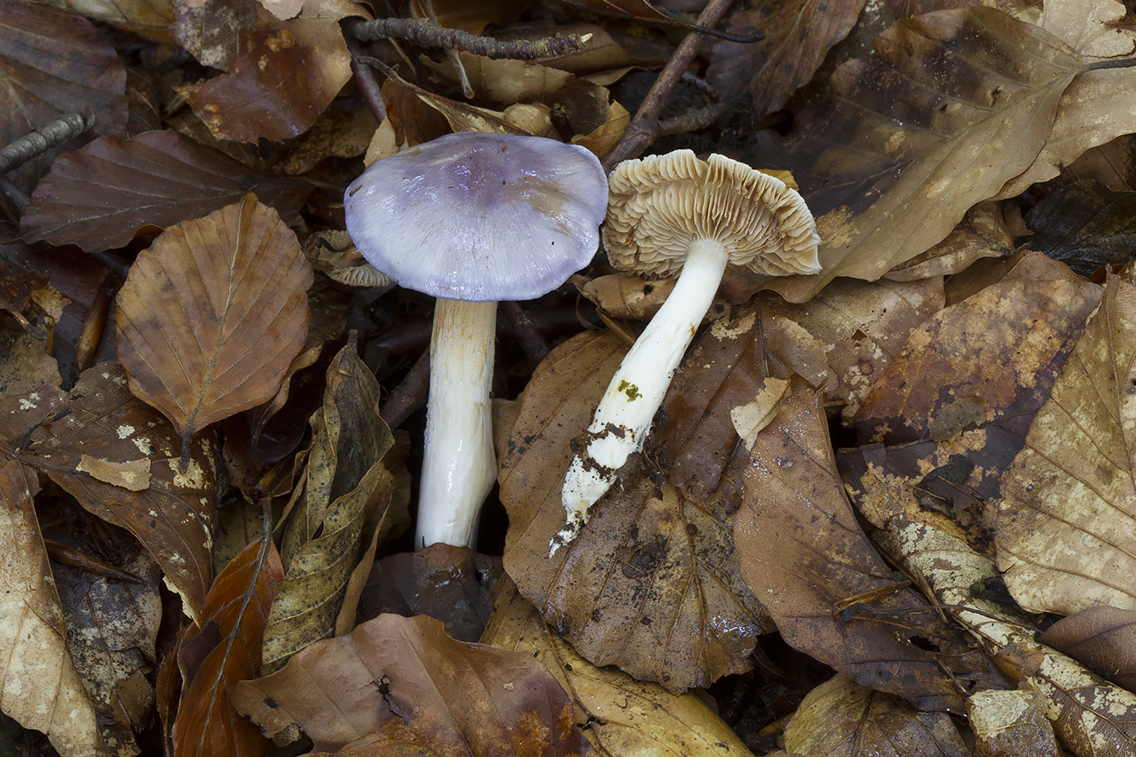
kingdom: Fungi
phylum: Basidiomycota
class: Agaricomycetes
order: Agaricales
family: Cortinariaceae
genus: Thaxterogaster
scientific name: Thaxterogaster croceocoeruleus
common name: blågullig slørhat
